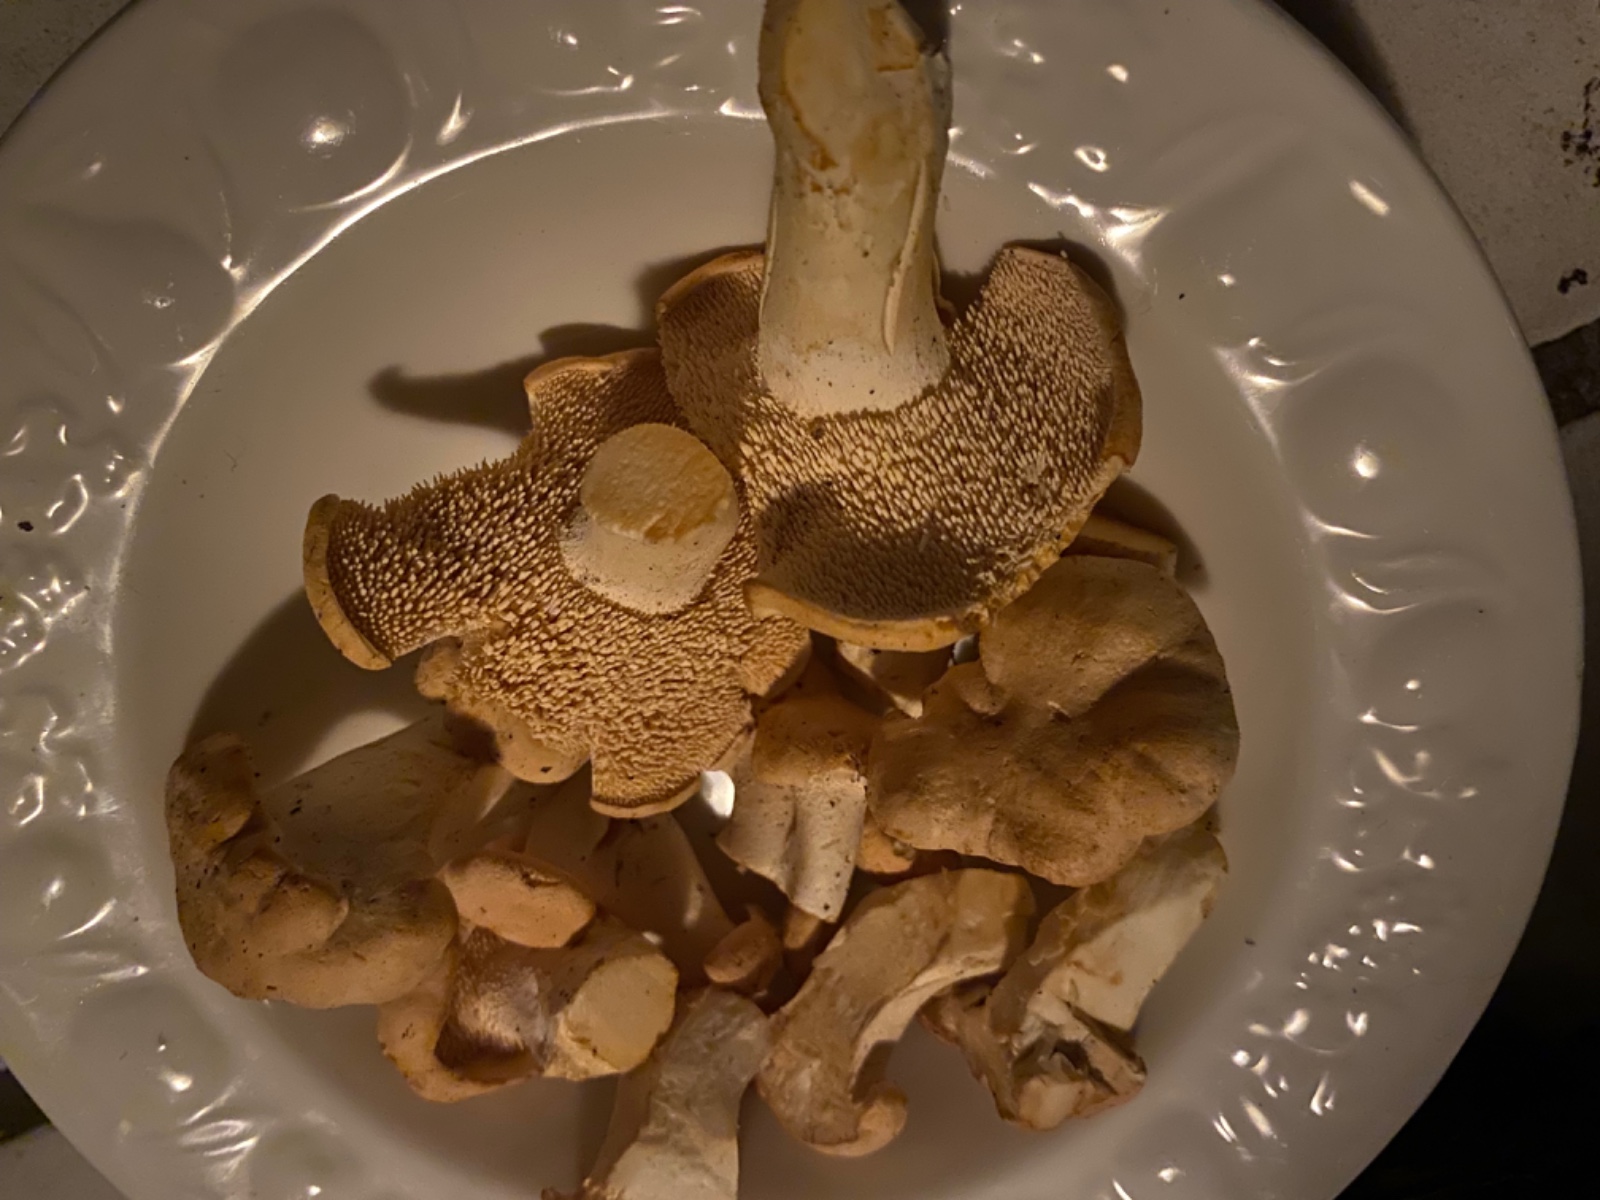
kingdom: Fungi
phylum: Basidiomycota
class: Agaricomycetes
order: Cantharellales
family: Hydnaceae
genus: Hydnum
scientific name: Hydnum
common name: pigsvamp
